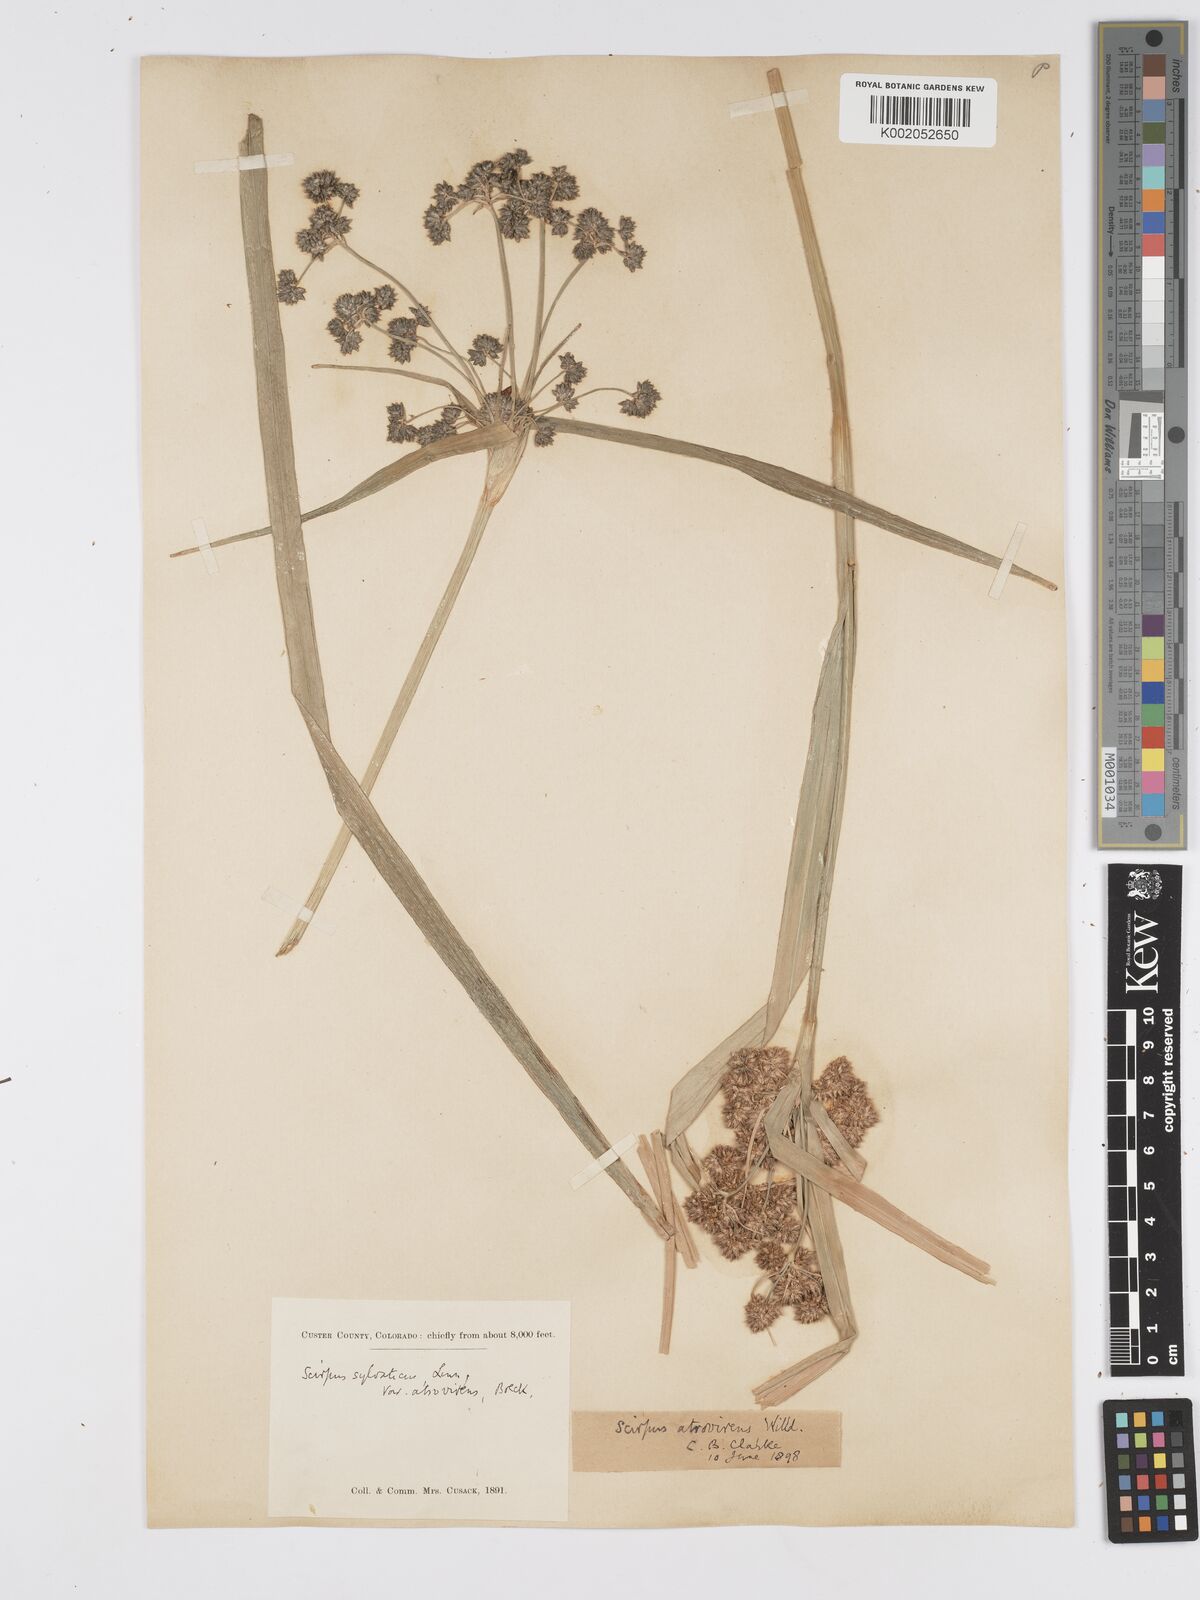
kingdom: Plantae
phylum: Tracheophyta
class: Liliopsida
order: Poales
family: Cyperaceae
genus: Scirpus
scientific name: Scirpus atrovirens
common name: Black bulrush
